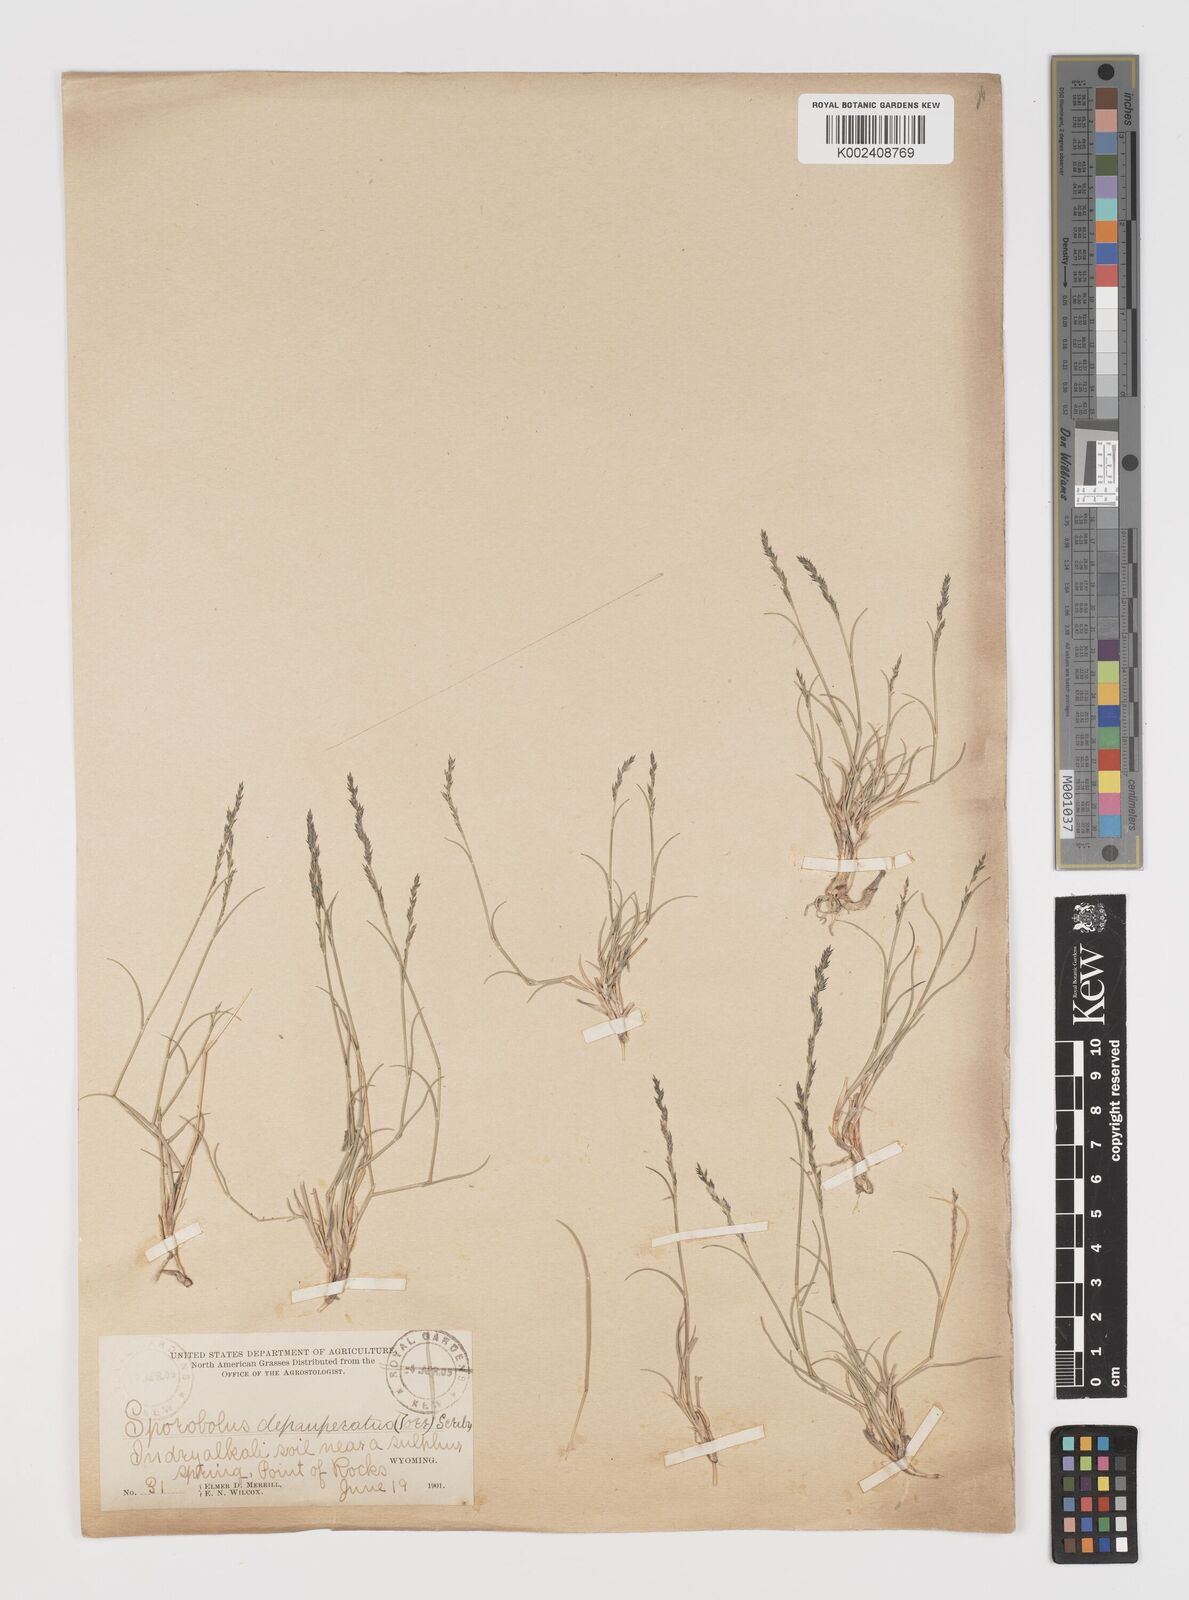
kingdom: Plantae
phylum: Tracheophyta
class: Liliopsida
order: Poales
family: Poaceae
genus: Muhlenbergia
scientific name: Muhlenbergia richardsonis
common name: Mat muhly
